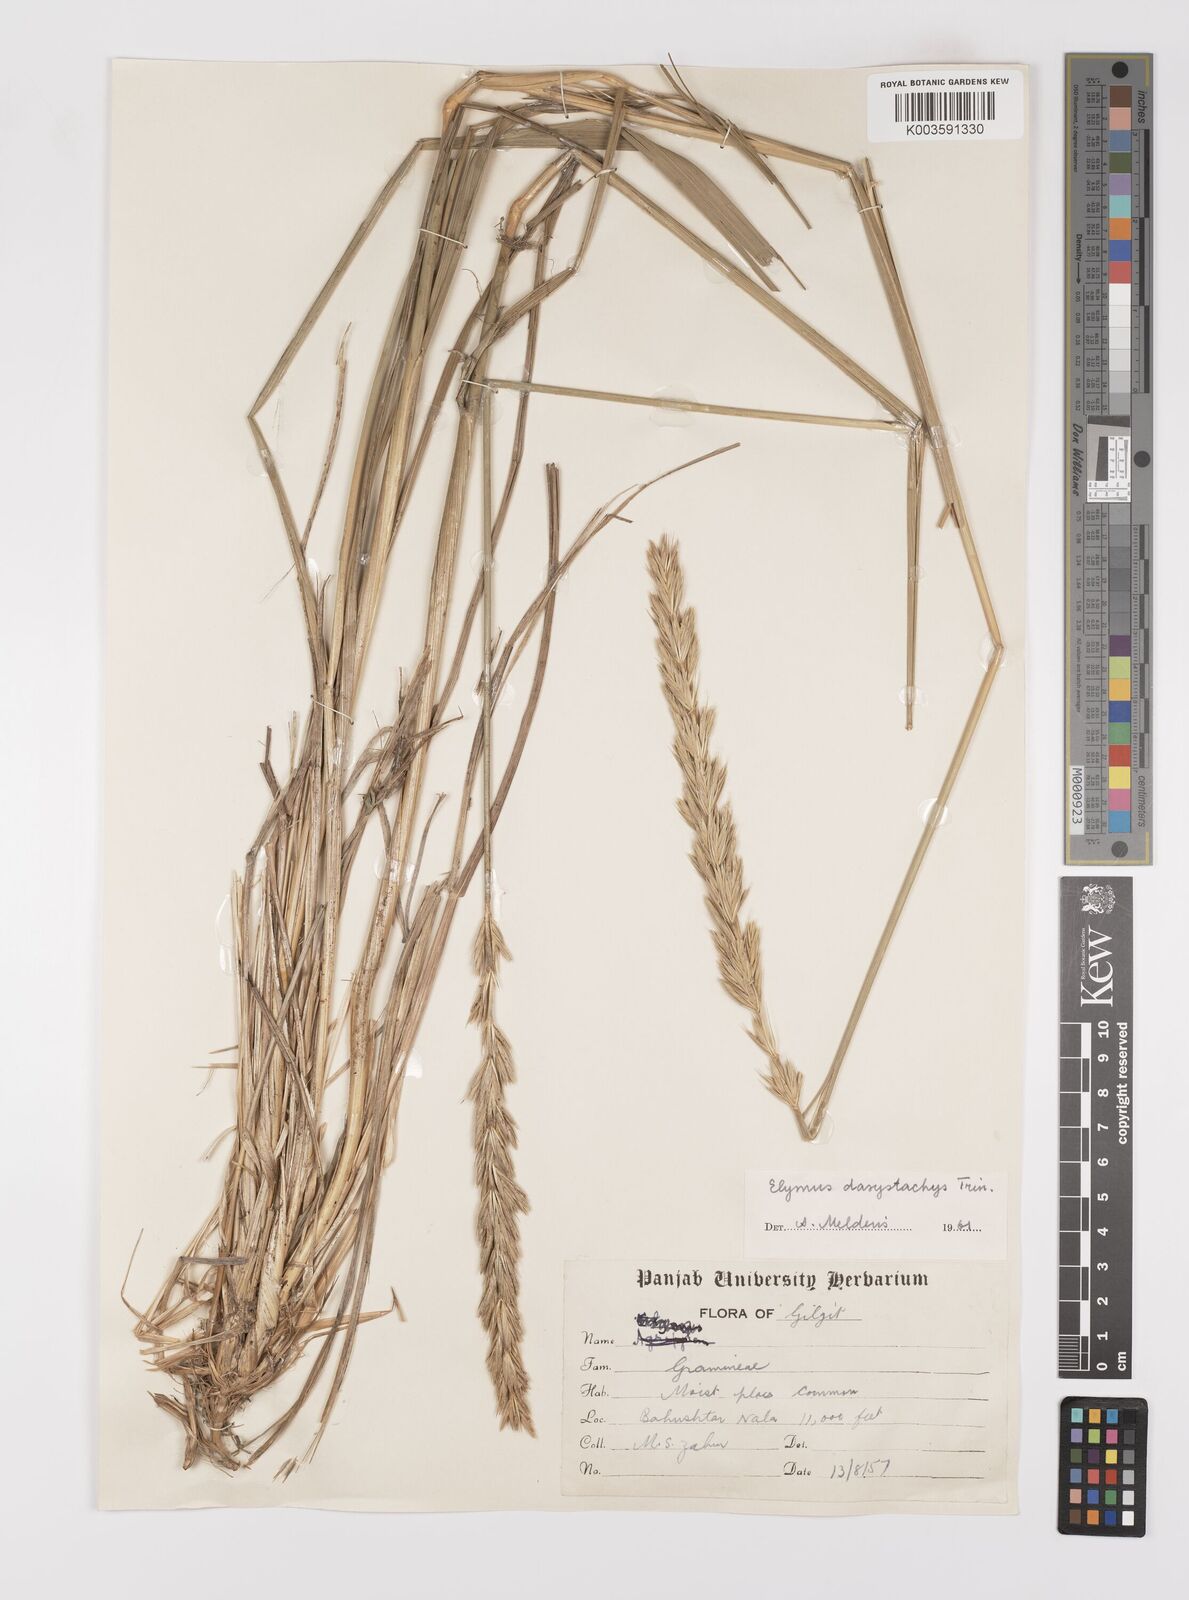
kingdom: Plantae
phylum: Tracheophyta
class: Liliopsida
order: Poales
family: Poaceae
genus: Leymus
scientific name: Leymus secalinus
